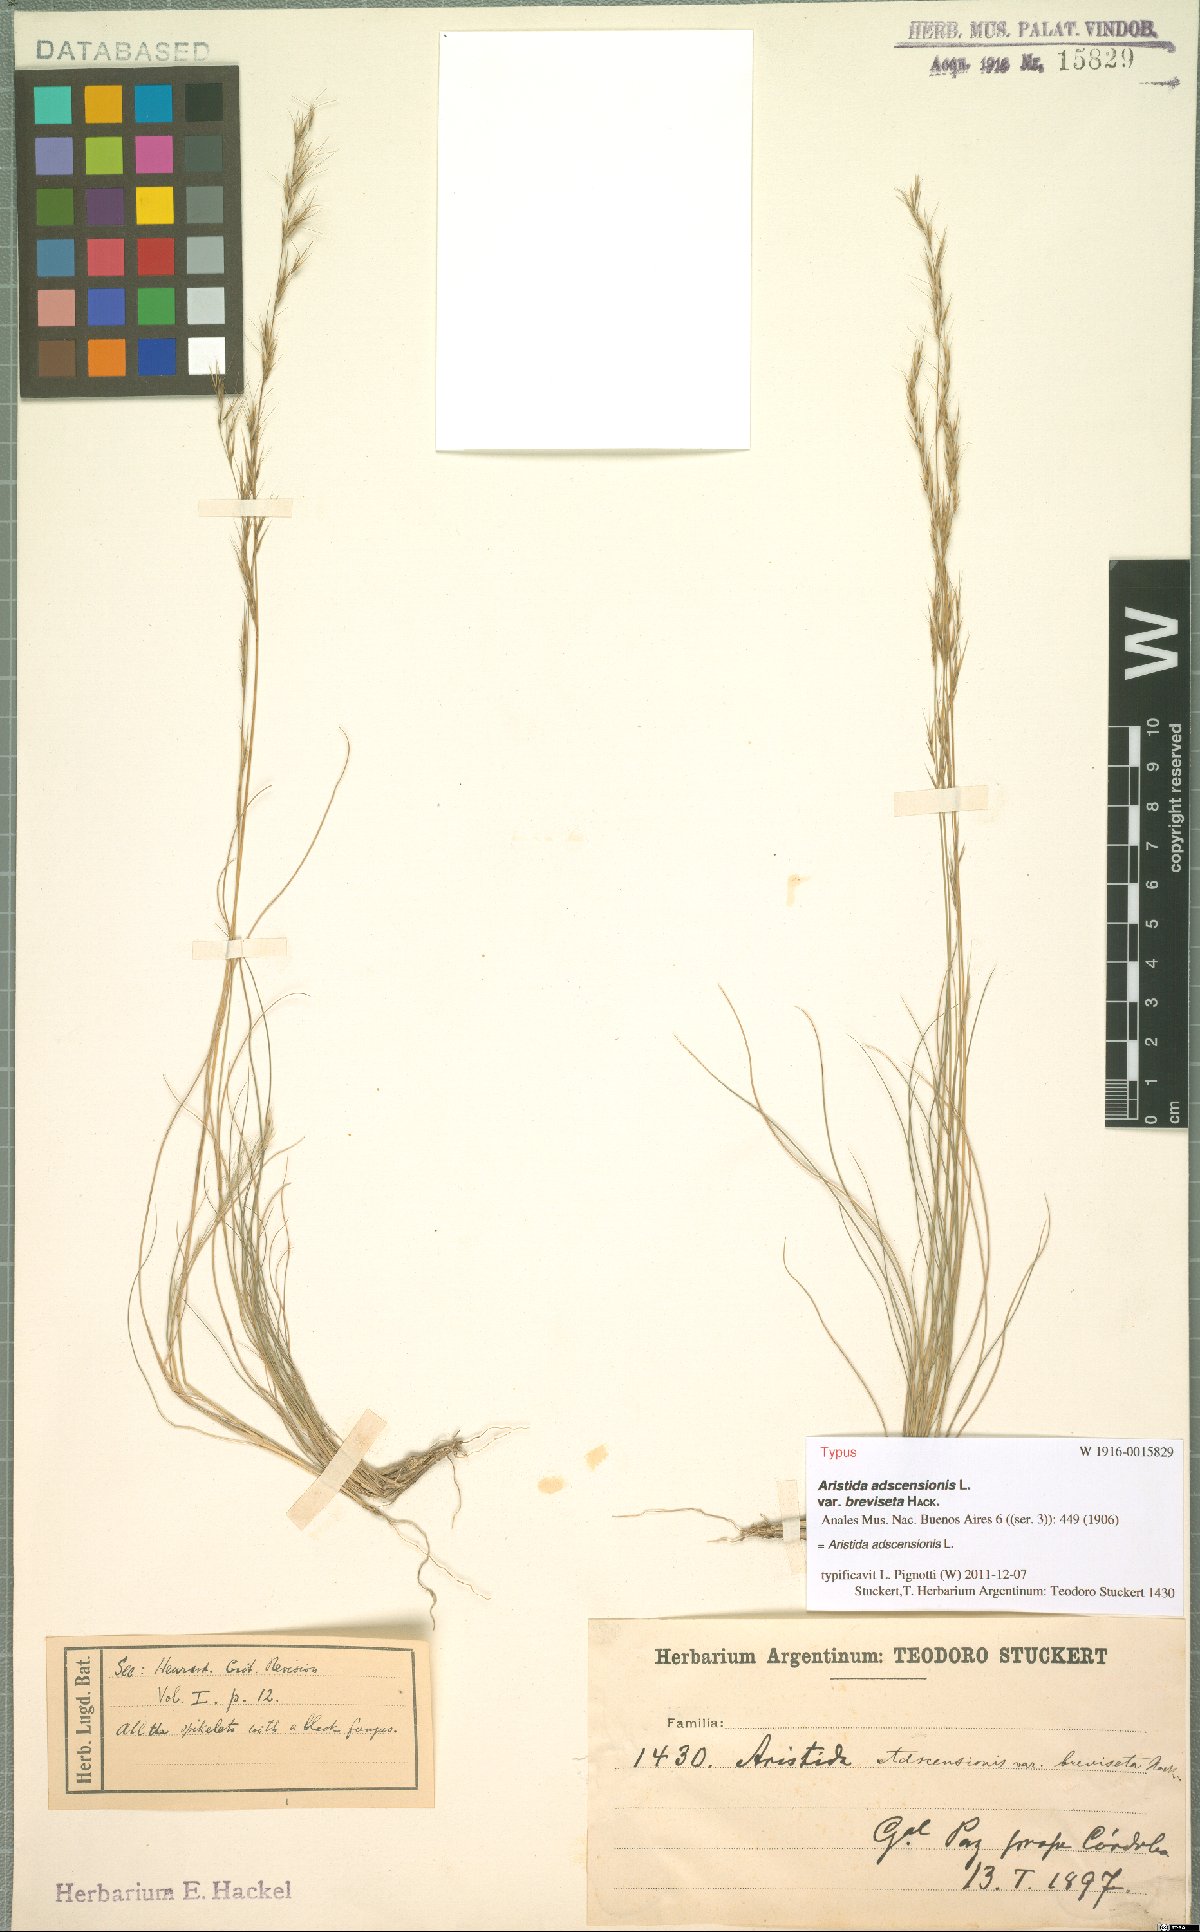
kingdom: Plantae
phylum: Tracheophyta
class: Liliopsida
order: Poales
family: Poaceae
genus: Aristida
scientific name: Aristida adscensionis
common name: Sixweeks threeawn
